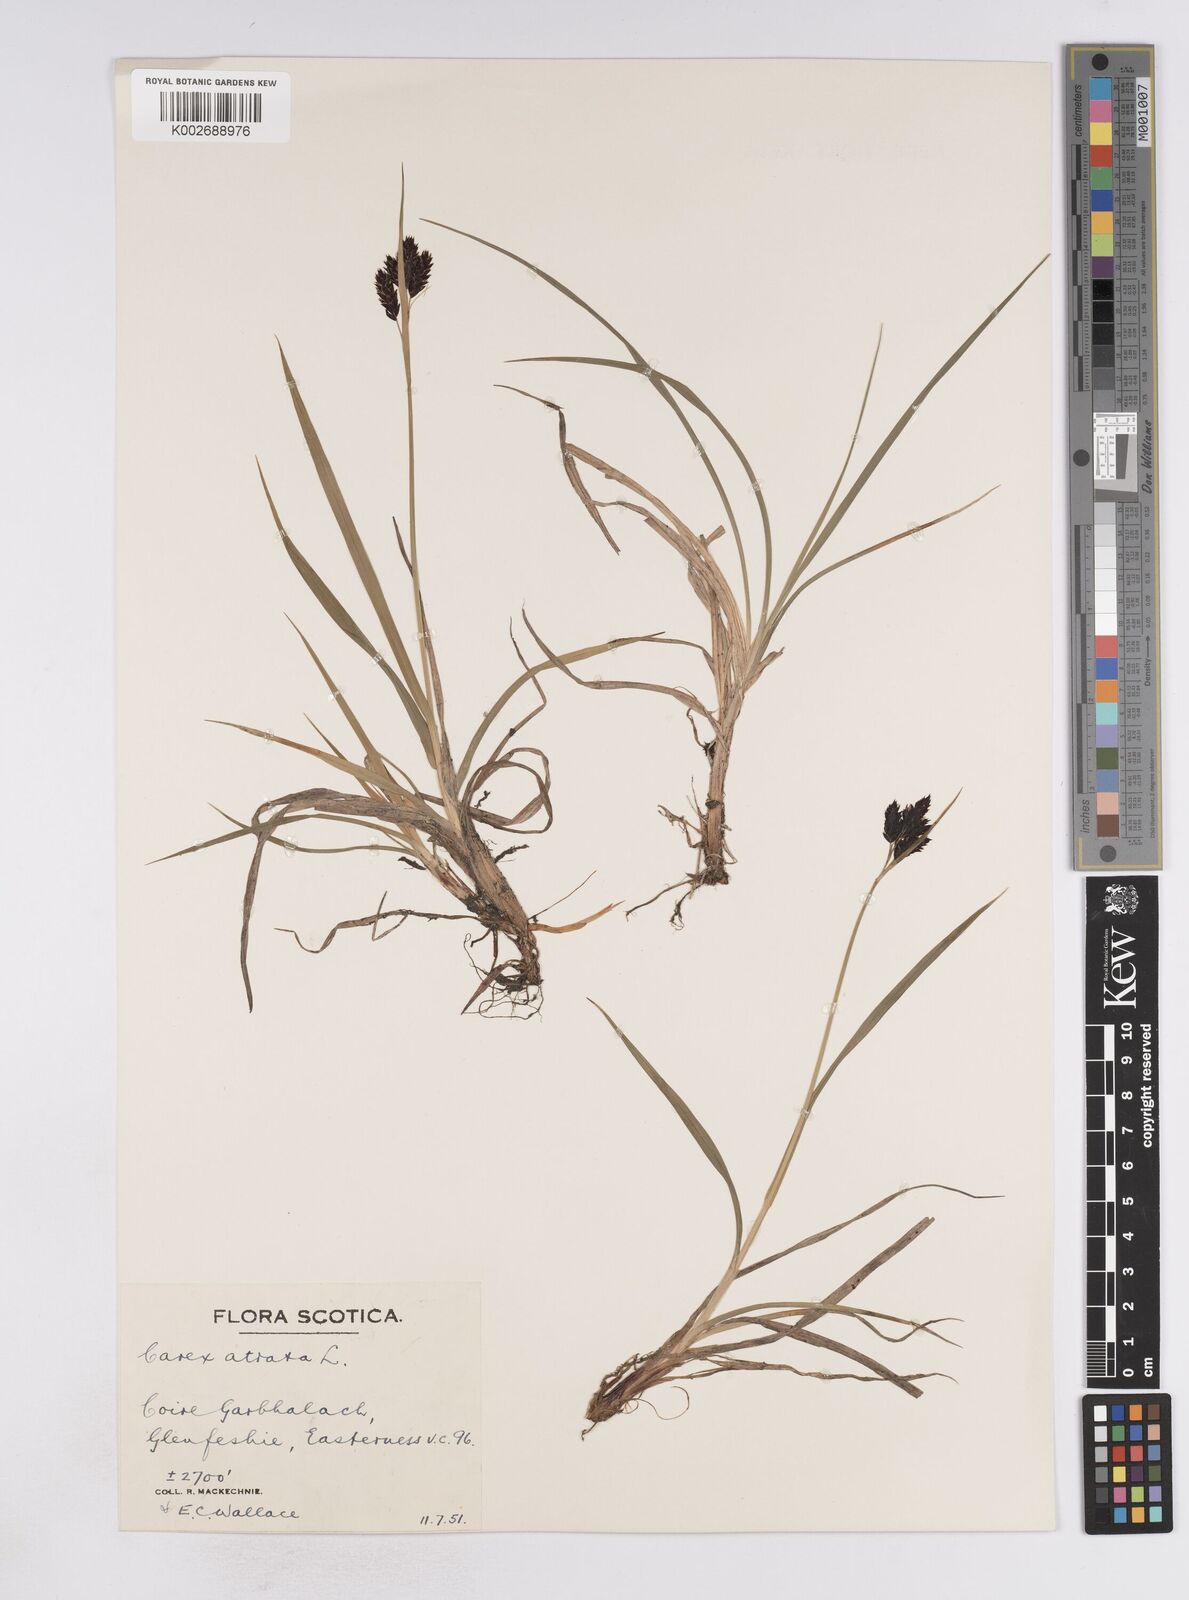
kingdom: Plantae
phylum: Tracheophyta
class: Liliopsida
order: Poales
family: Cyperaceae
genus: Carex
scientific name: Carex atrata
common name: Black alpine sedge
